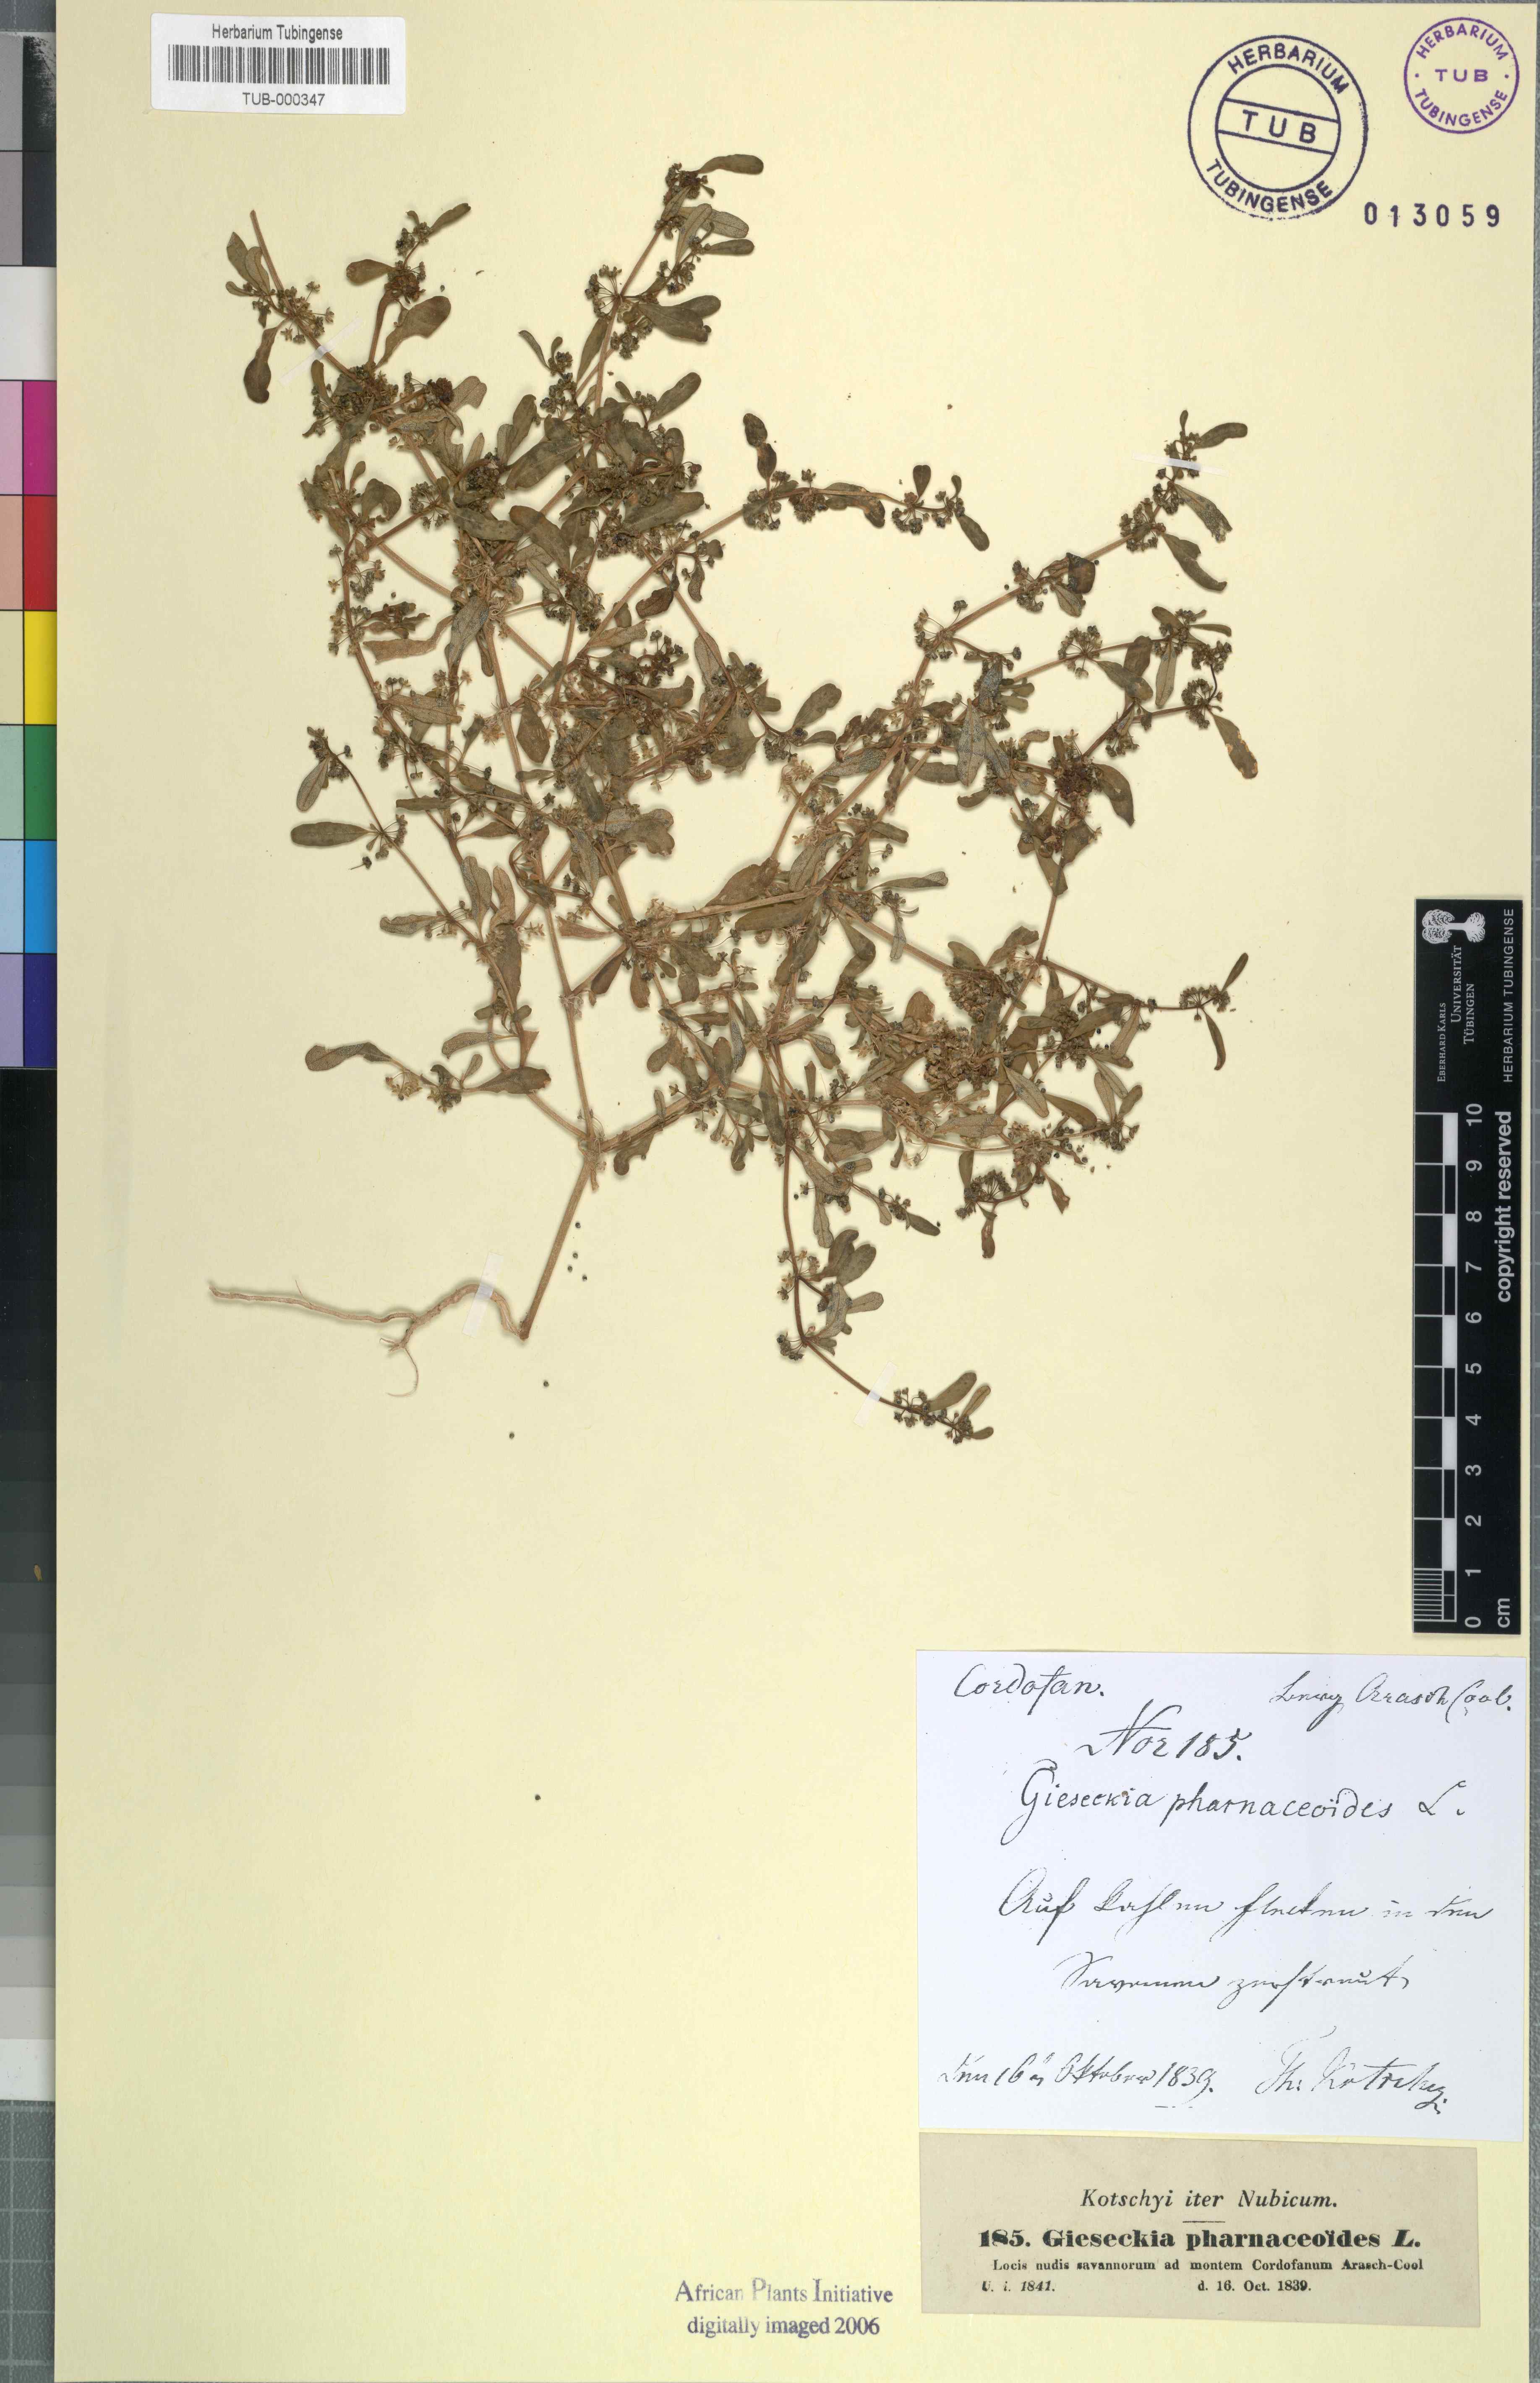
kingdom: Plantae
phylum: Tracheophyta
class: Magnoliopsida
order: Caryophyllales
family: Gisekiaceae
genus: Gisekia
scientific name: Gisekia pharnaceoides
